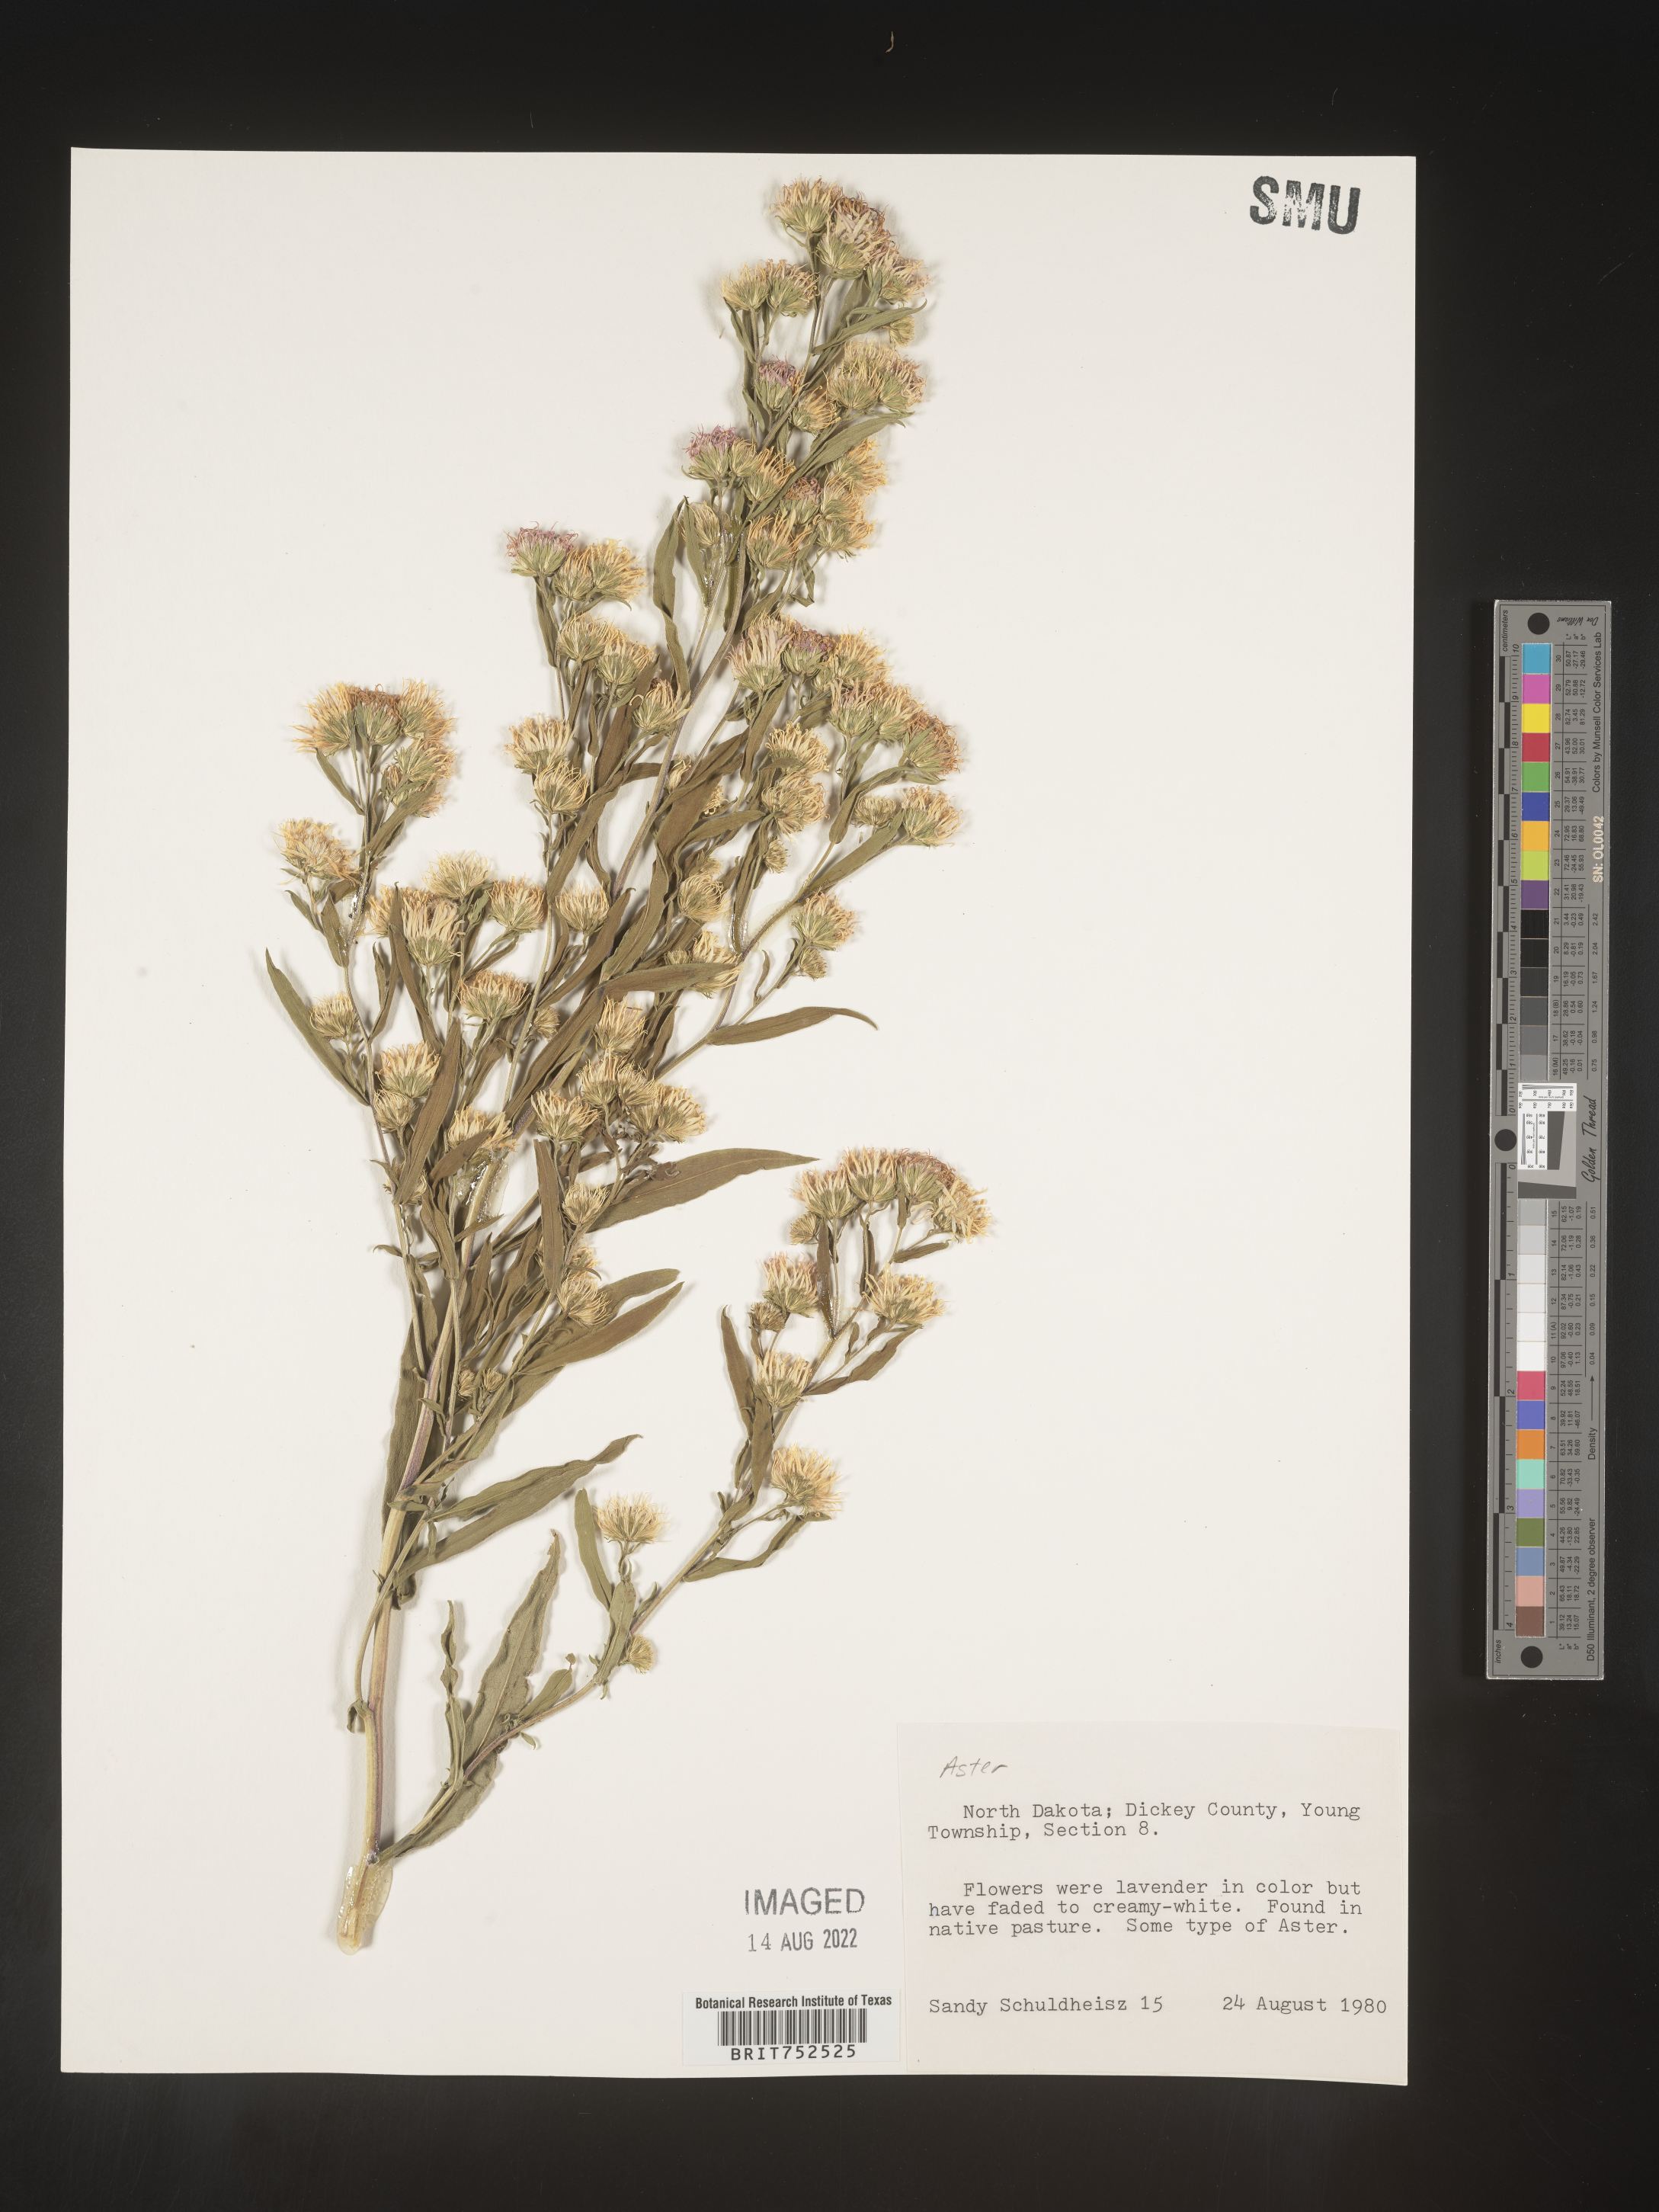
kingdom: Plantae
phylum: Tracheophyta
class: Magnoliopsida
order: Asterales
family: Asteraceae
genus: Symphyotrichum
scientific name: Symphyotrichum lanceolatum
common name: Panicled aster
